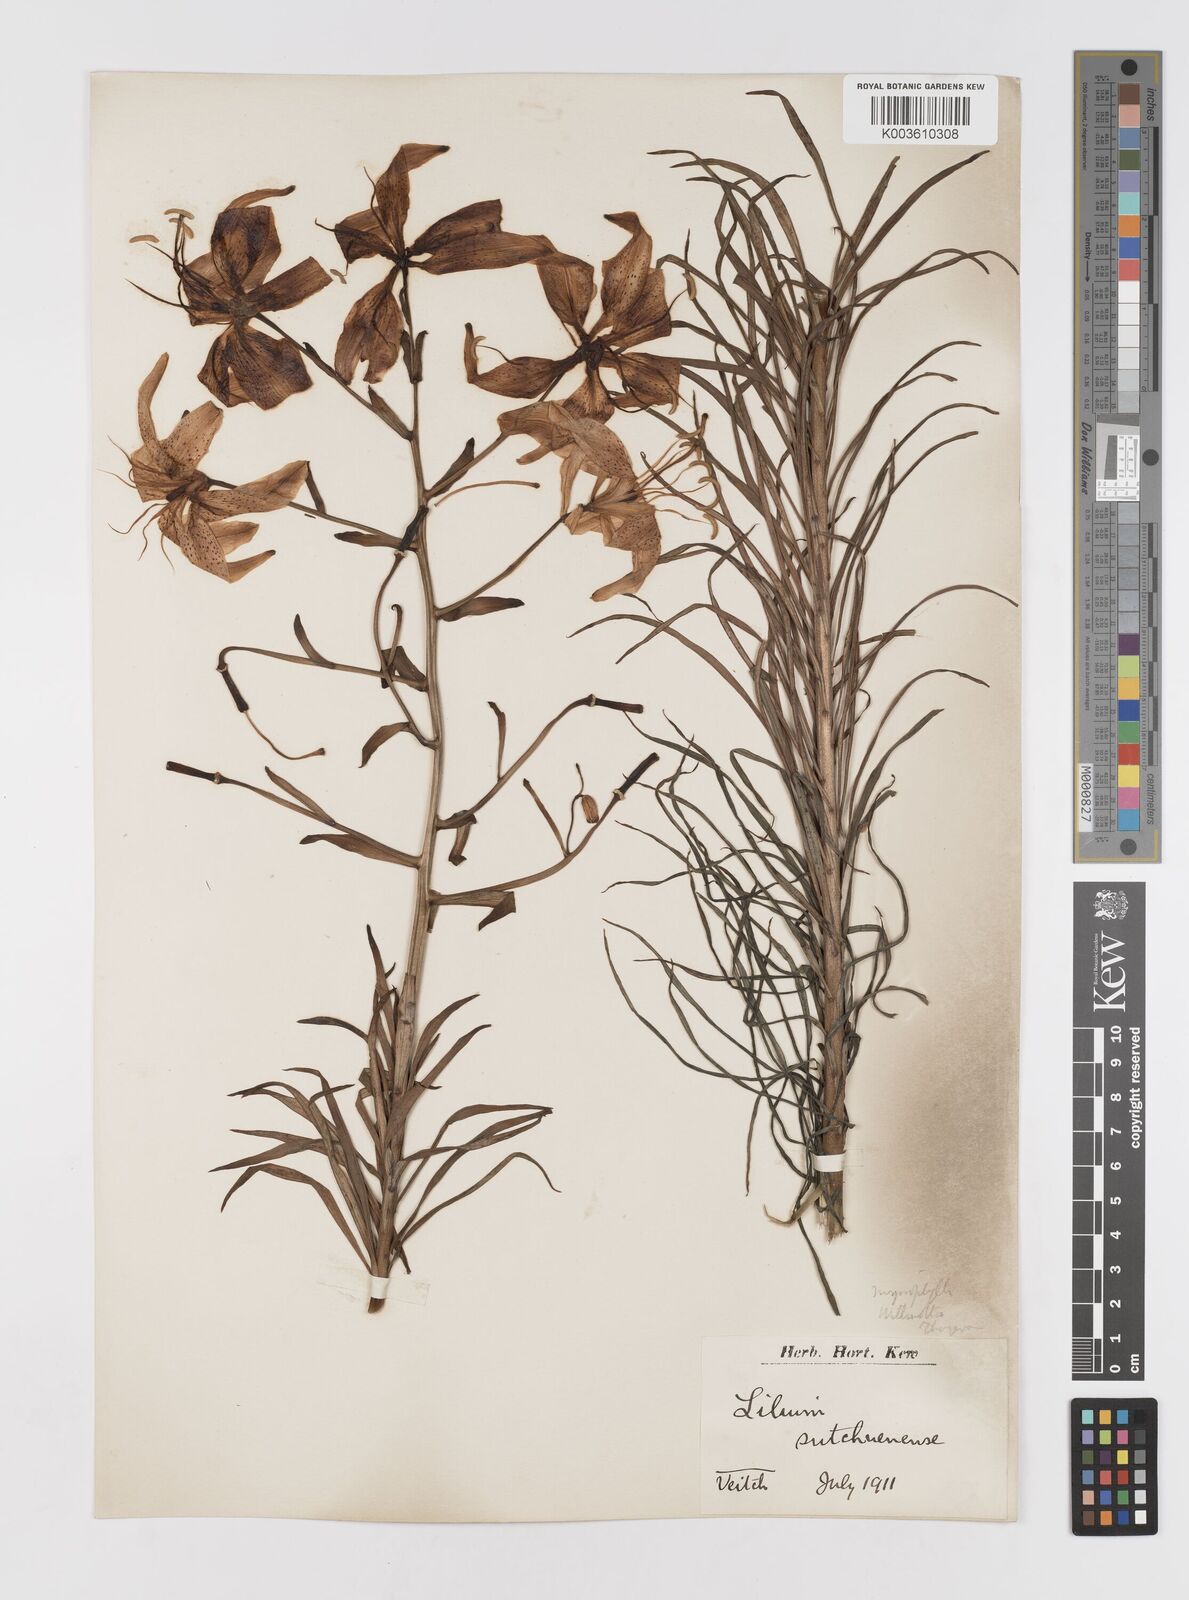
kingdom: Plantae
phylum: Tracheophyta
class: Liliopsida
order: Liliales
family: Liliaceae
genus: Lilium
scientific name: Lilium davidii
